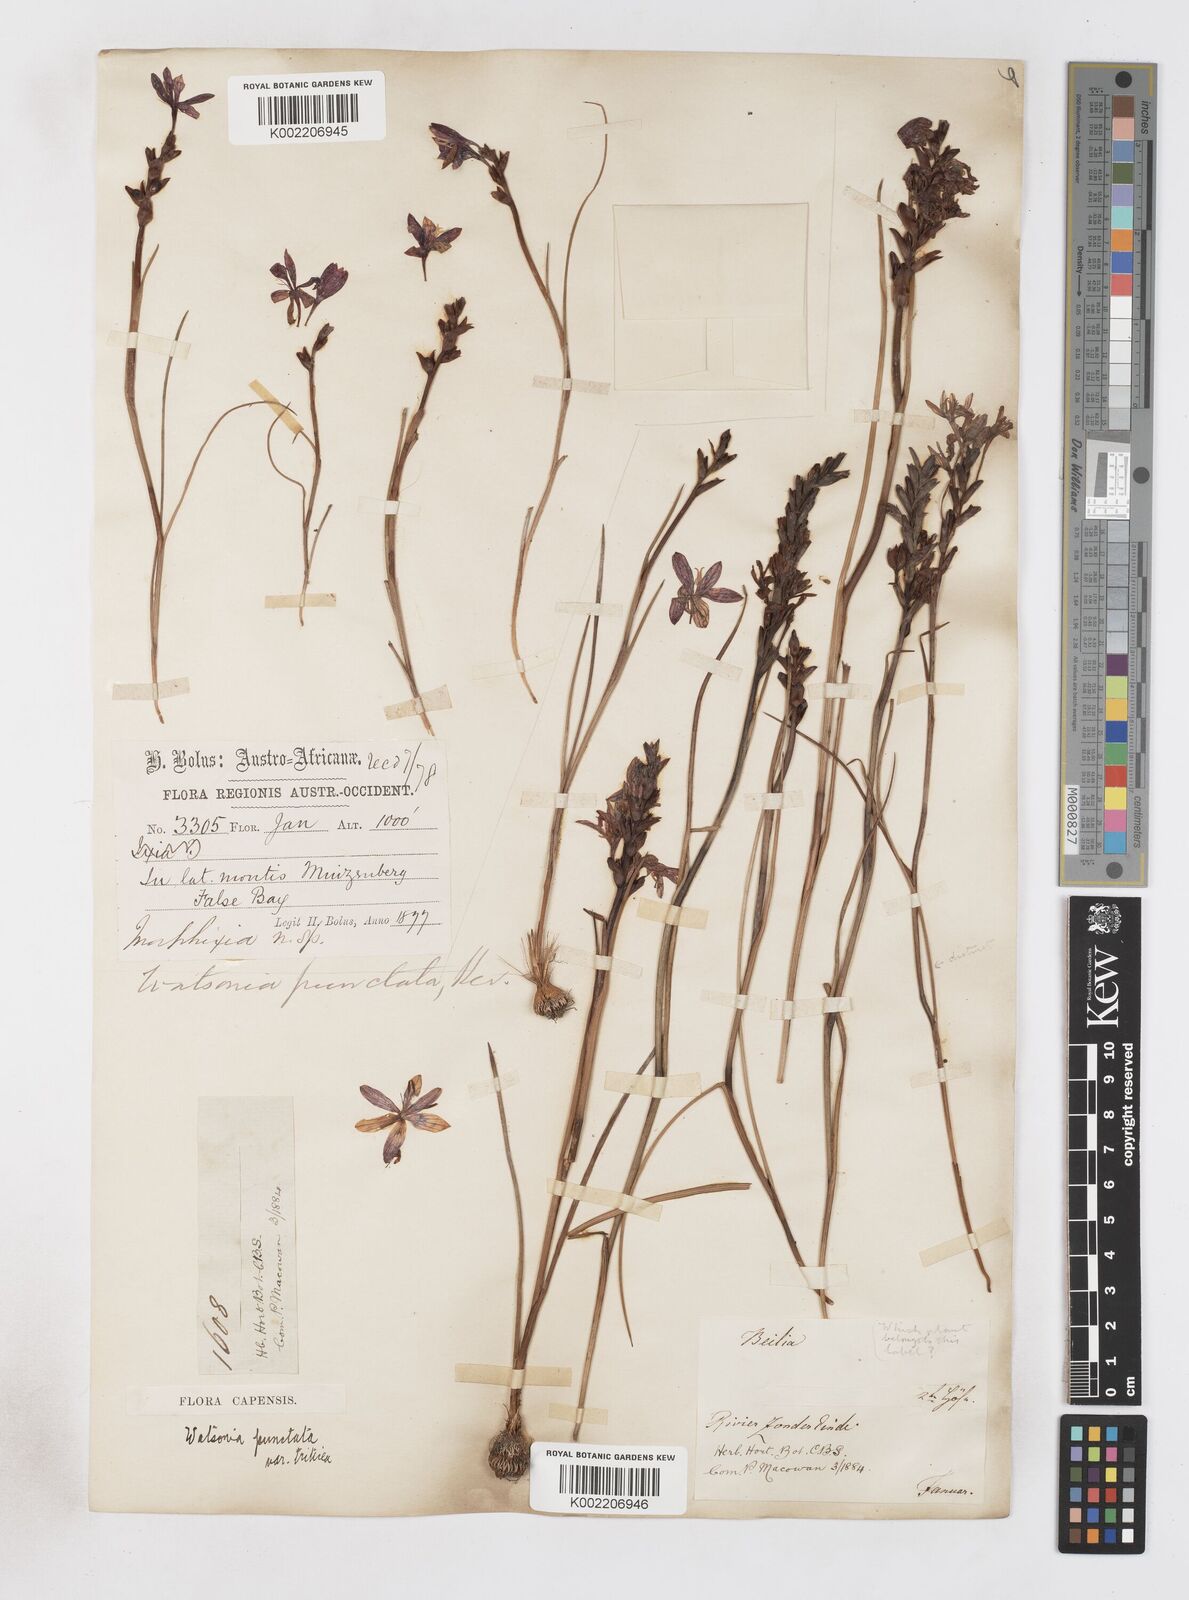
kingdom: Plantae
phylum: Tracheophyta
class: Liliopsida
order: Asparagales
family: Iridaceae
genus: Thereianthus
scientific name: Thereianthus spicatus
